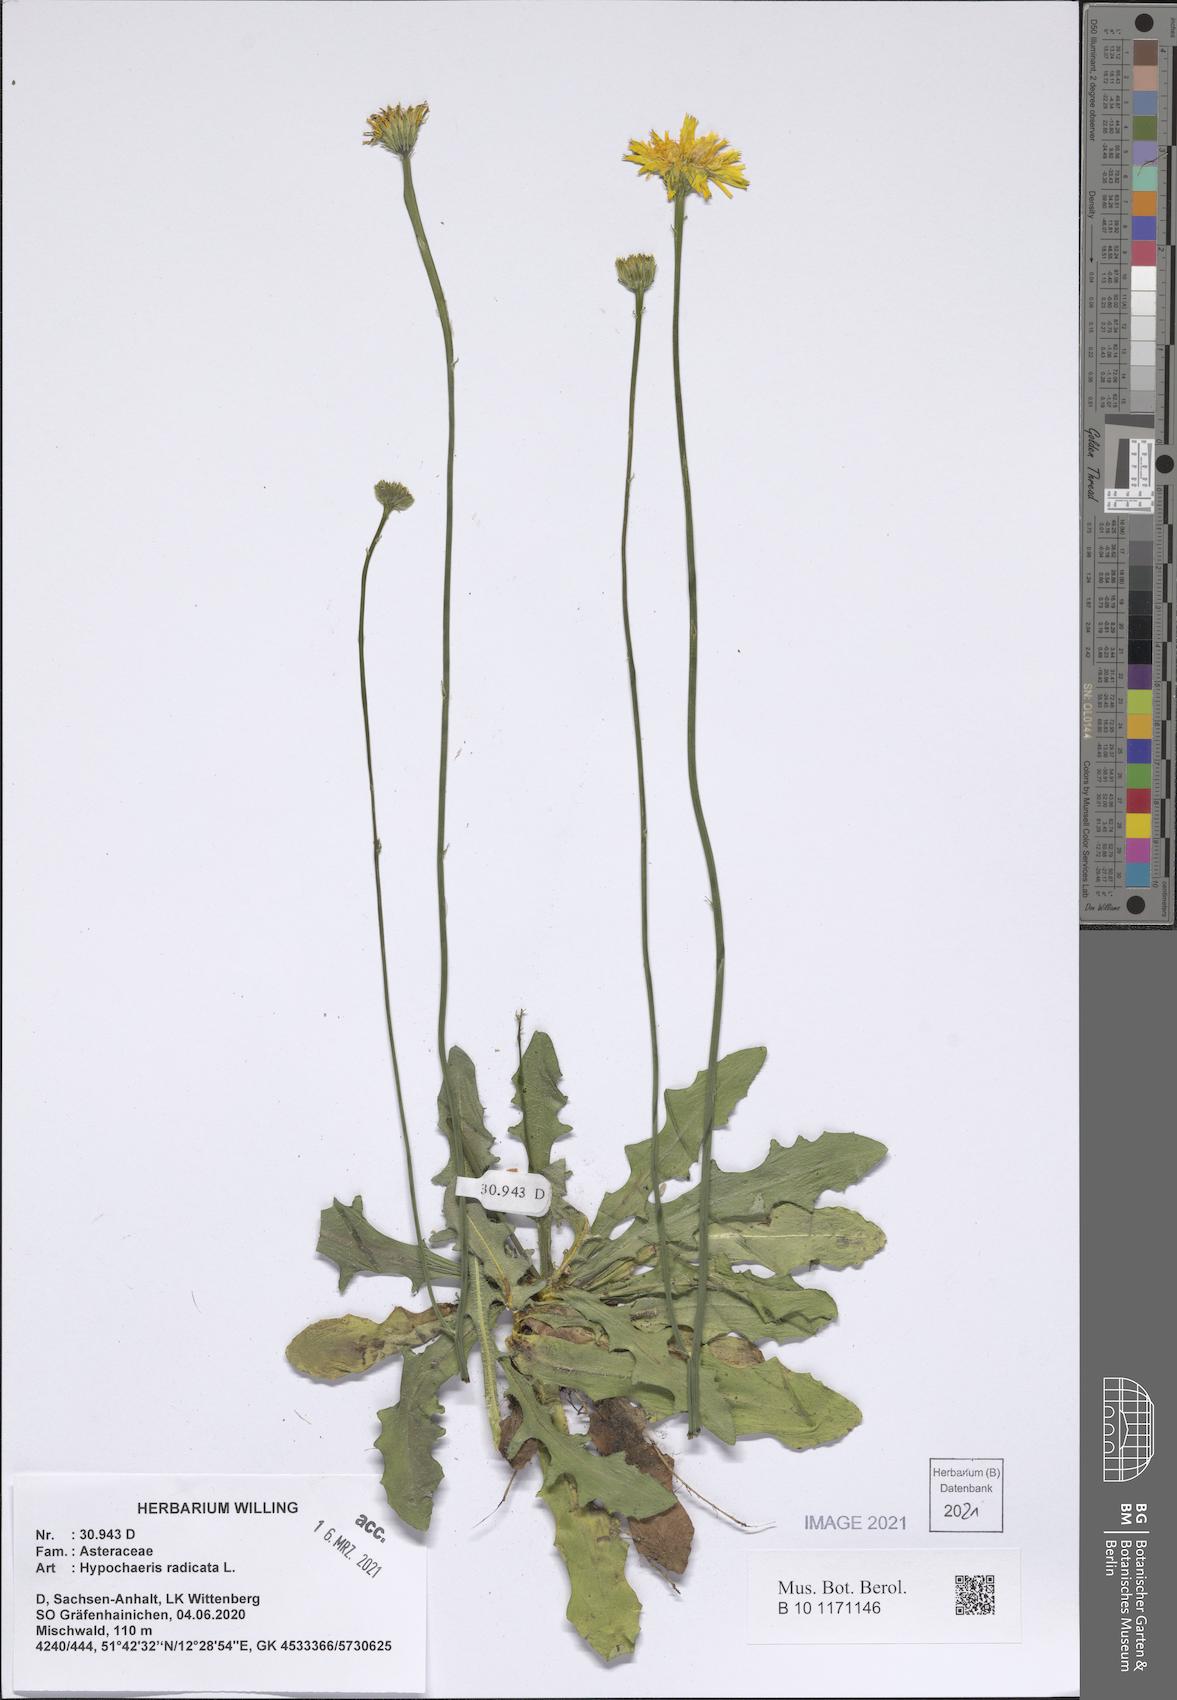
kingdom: Plantae
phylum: Tracheophyta
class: Magnoliopsida
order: Asterales
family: Asteraceae
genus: Hypochaeris
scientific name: Hypochaeris radicata
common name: Flatweed
